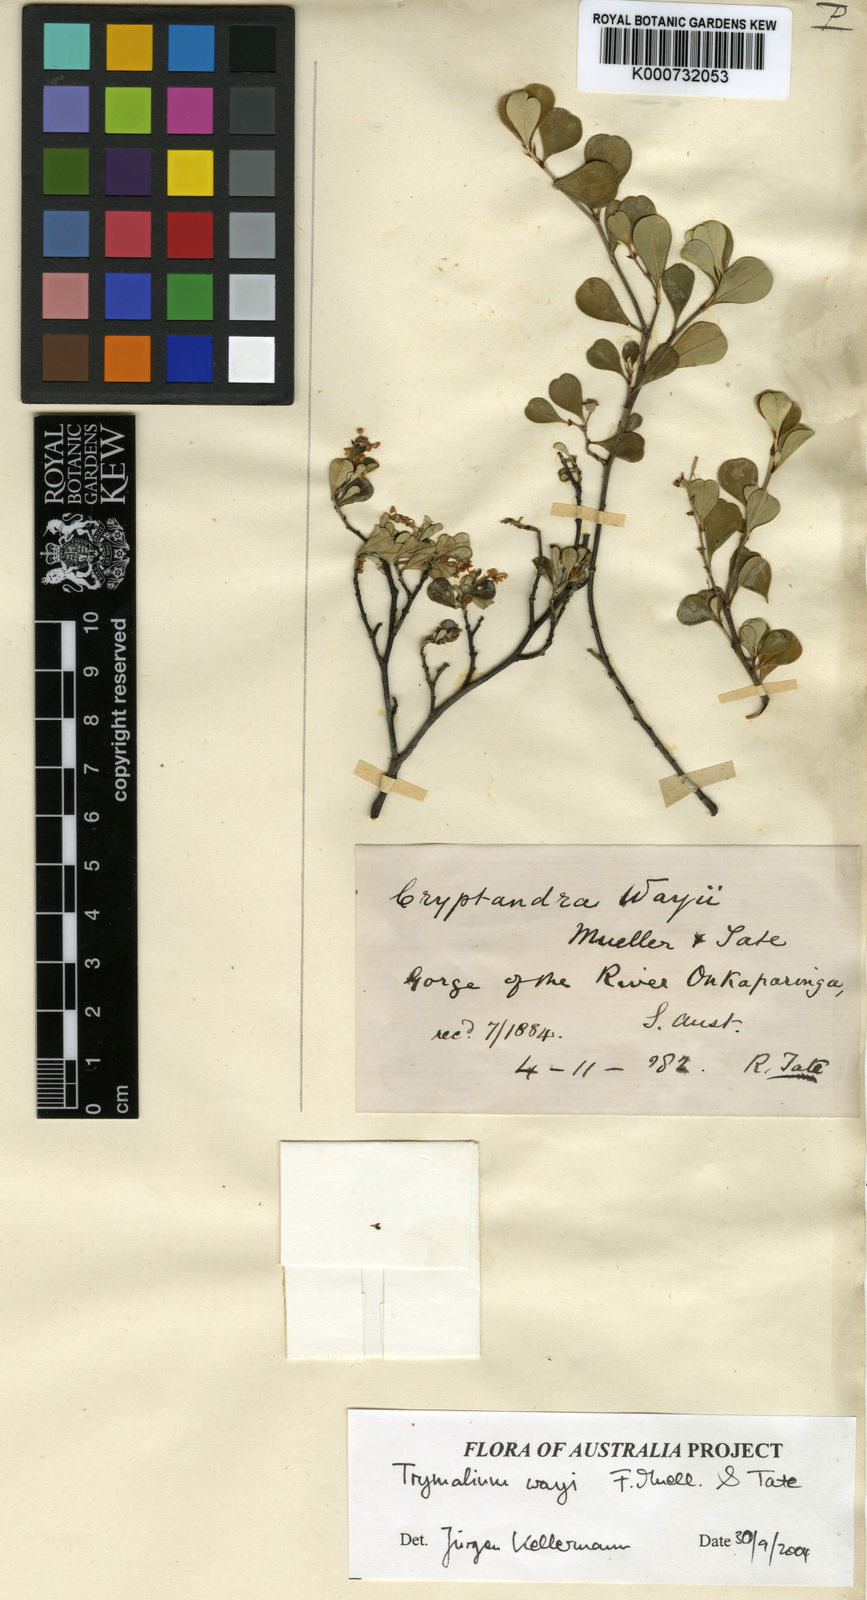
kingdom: Plantae
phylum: Tracheophyta
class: Magnoliopsida
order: Rosales
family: Rhamnaceae
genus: Trymalium
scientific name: Trymalium wayi
